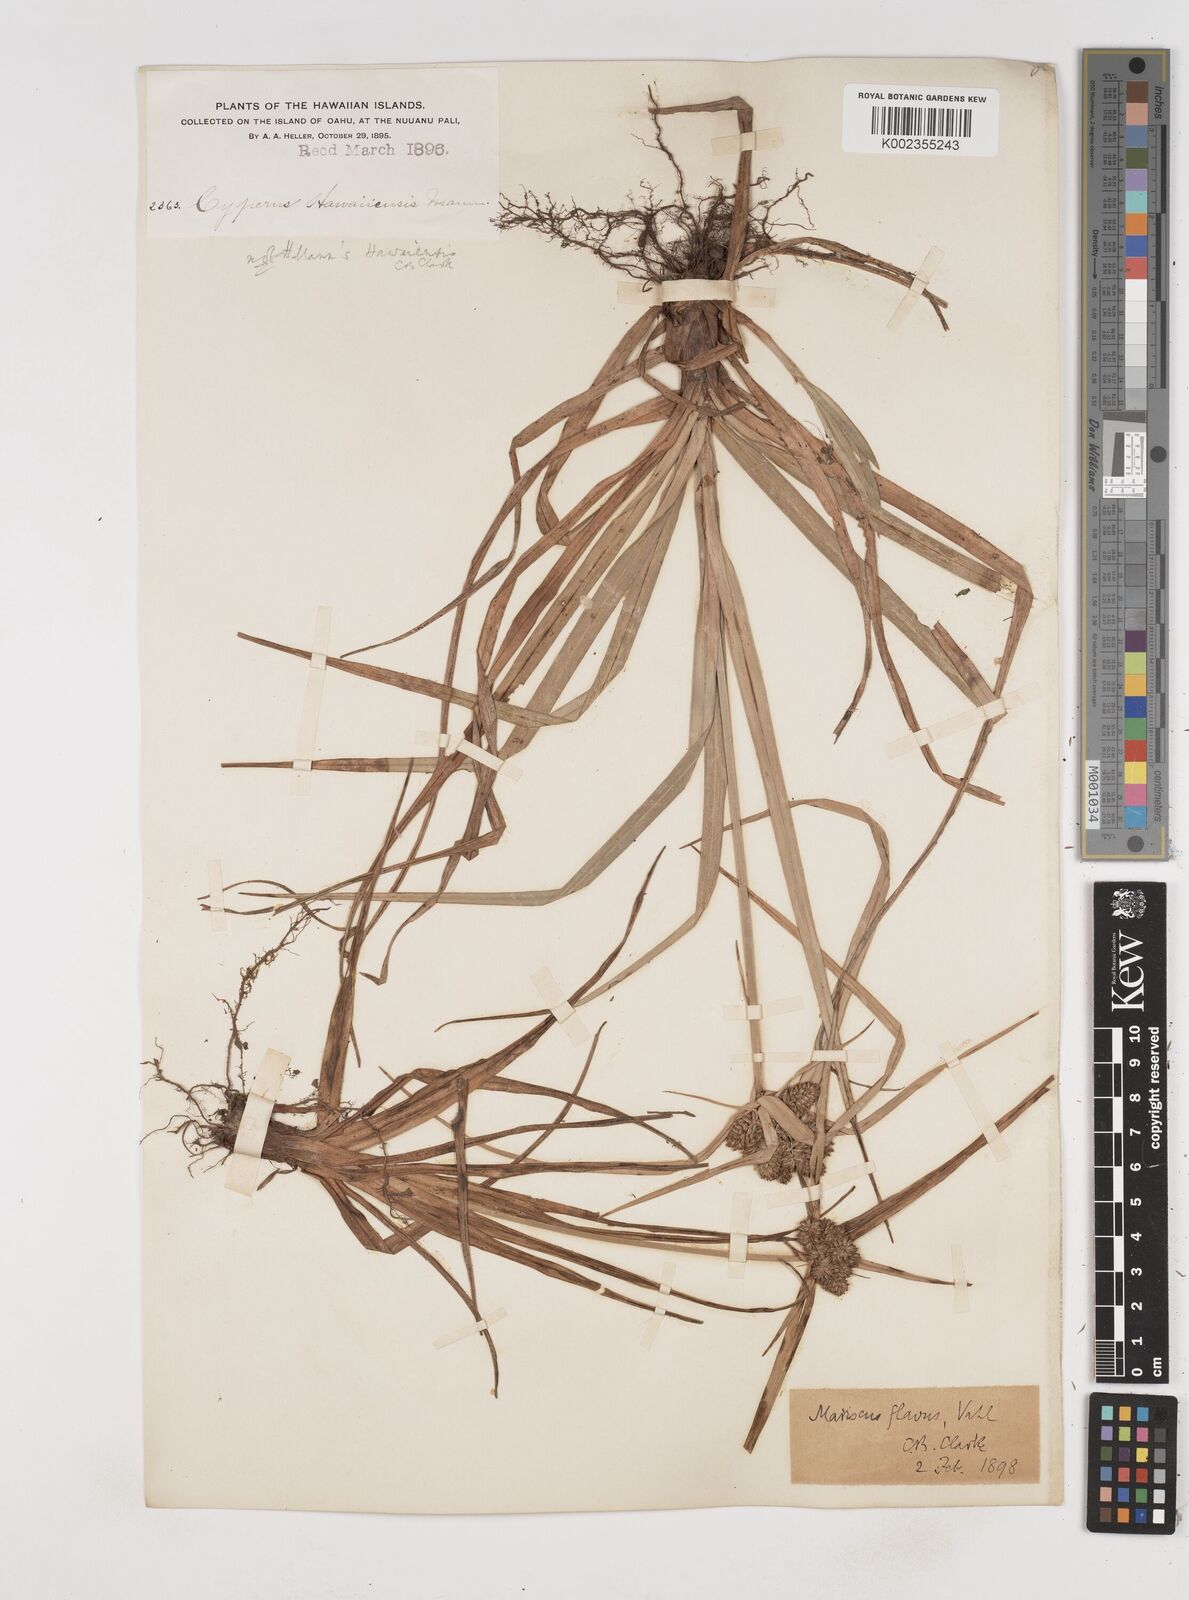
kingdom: Plantae
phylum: Tracheophyta
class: Liliopsida
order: Poales
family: Cyperaceae
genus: Cyperus
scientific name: Cyperus
